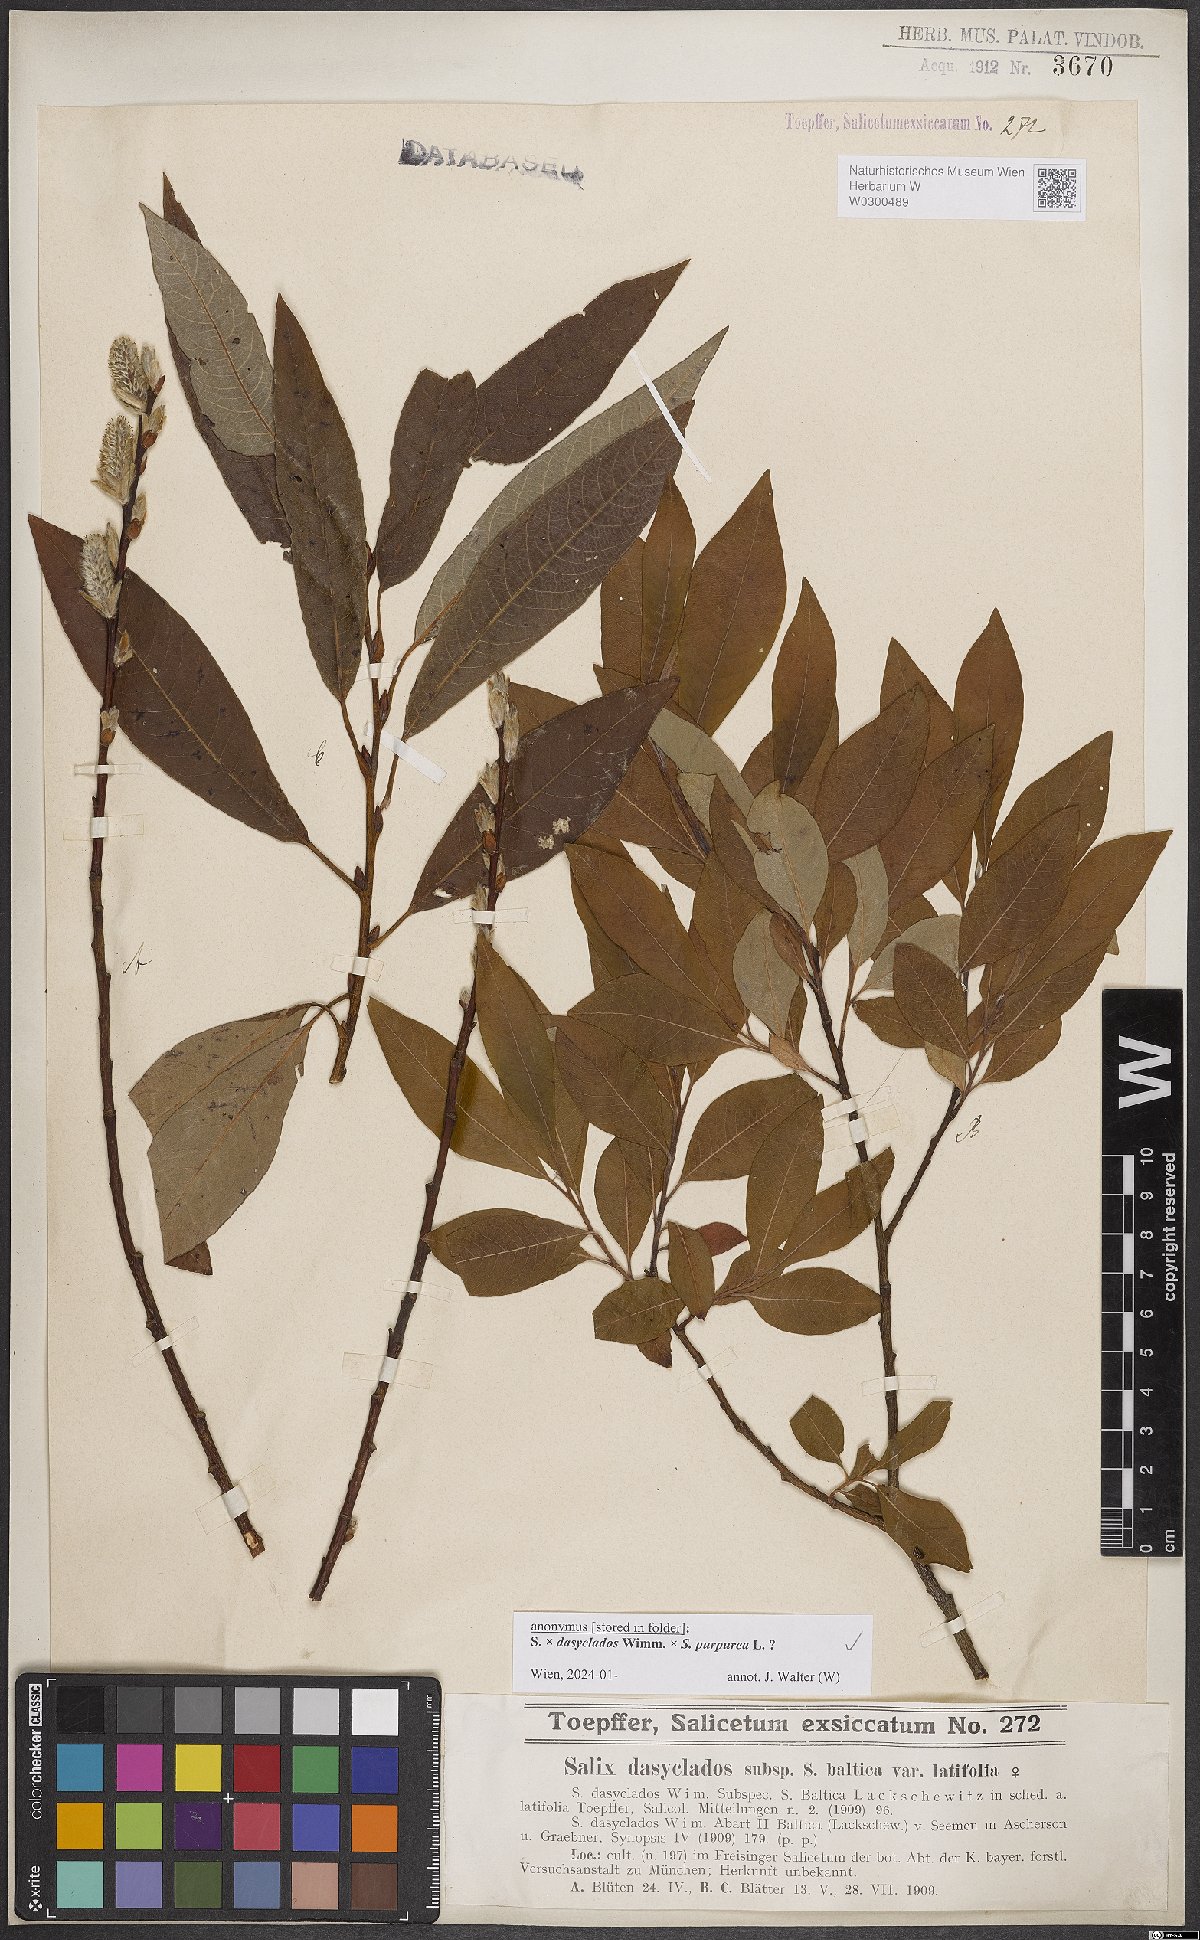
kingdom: Plantae
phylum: Tracheophyta
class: Magnoliopsida
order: Malpighiales
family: Salicaceae
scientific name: Salicaceae
